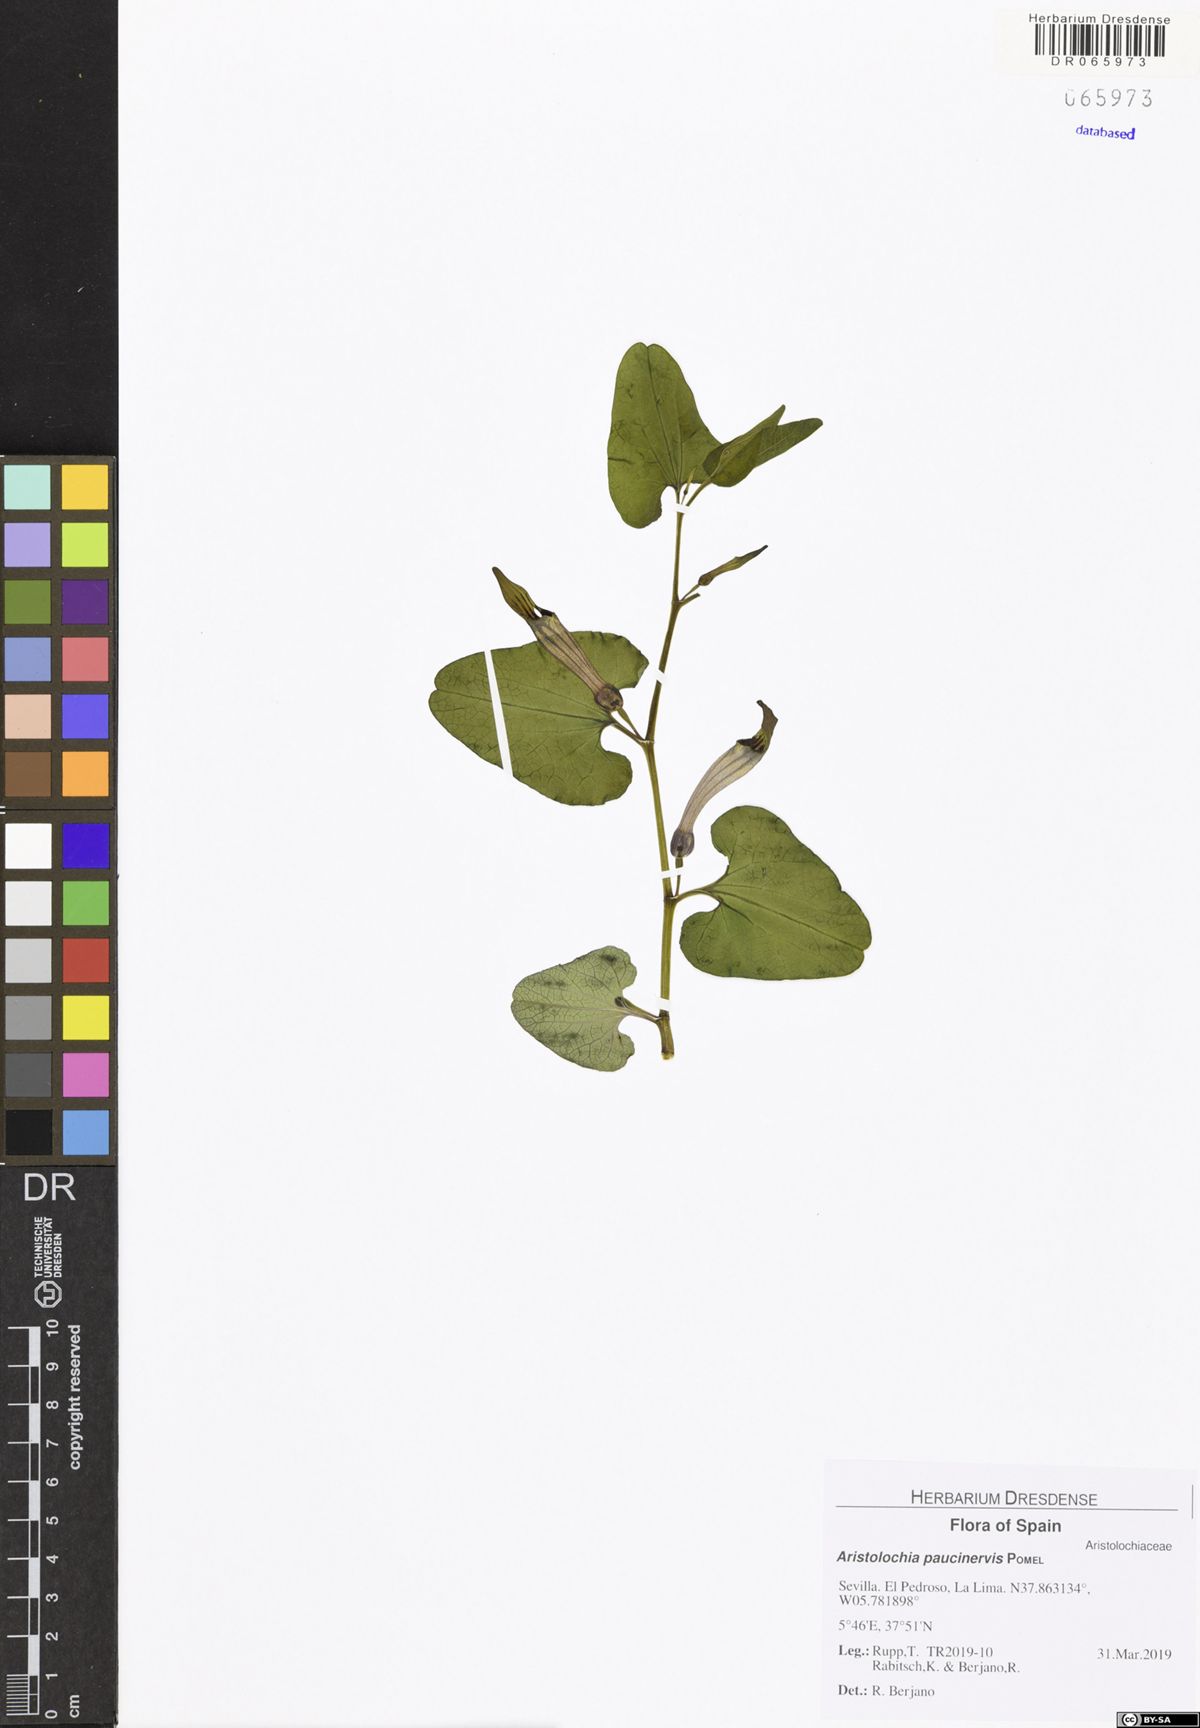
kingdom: Plantae
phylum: Tracheophyta
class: Magnoliopsida
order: Piperales
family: Aristolochiaceae
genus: Aristolochia
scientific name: Aristolochia paucinervis
